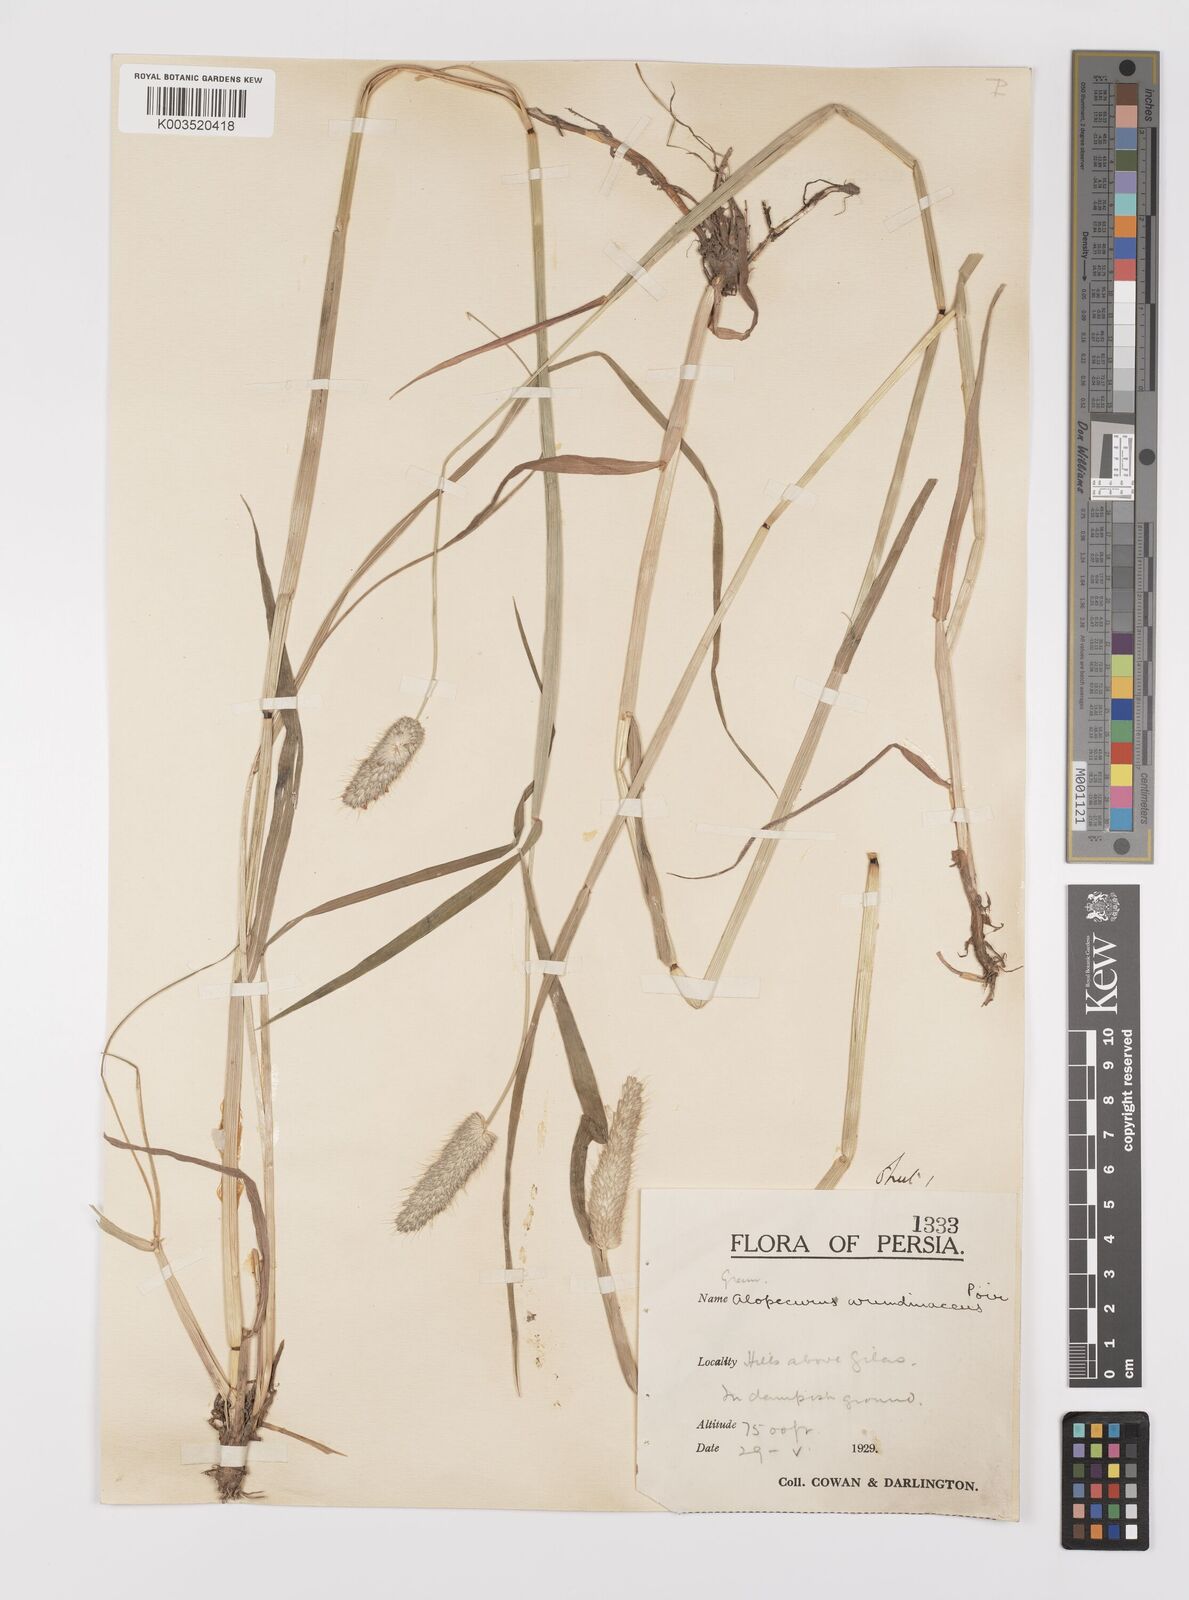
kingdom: Plantae
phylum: Tracheophyta
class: Liliopsida
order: Poales
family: Poaceae
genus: Alopecurus
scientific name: Alopecurus arundinaceus
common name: Creeping meadow foxtail
